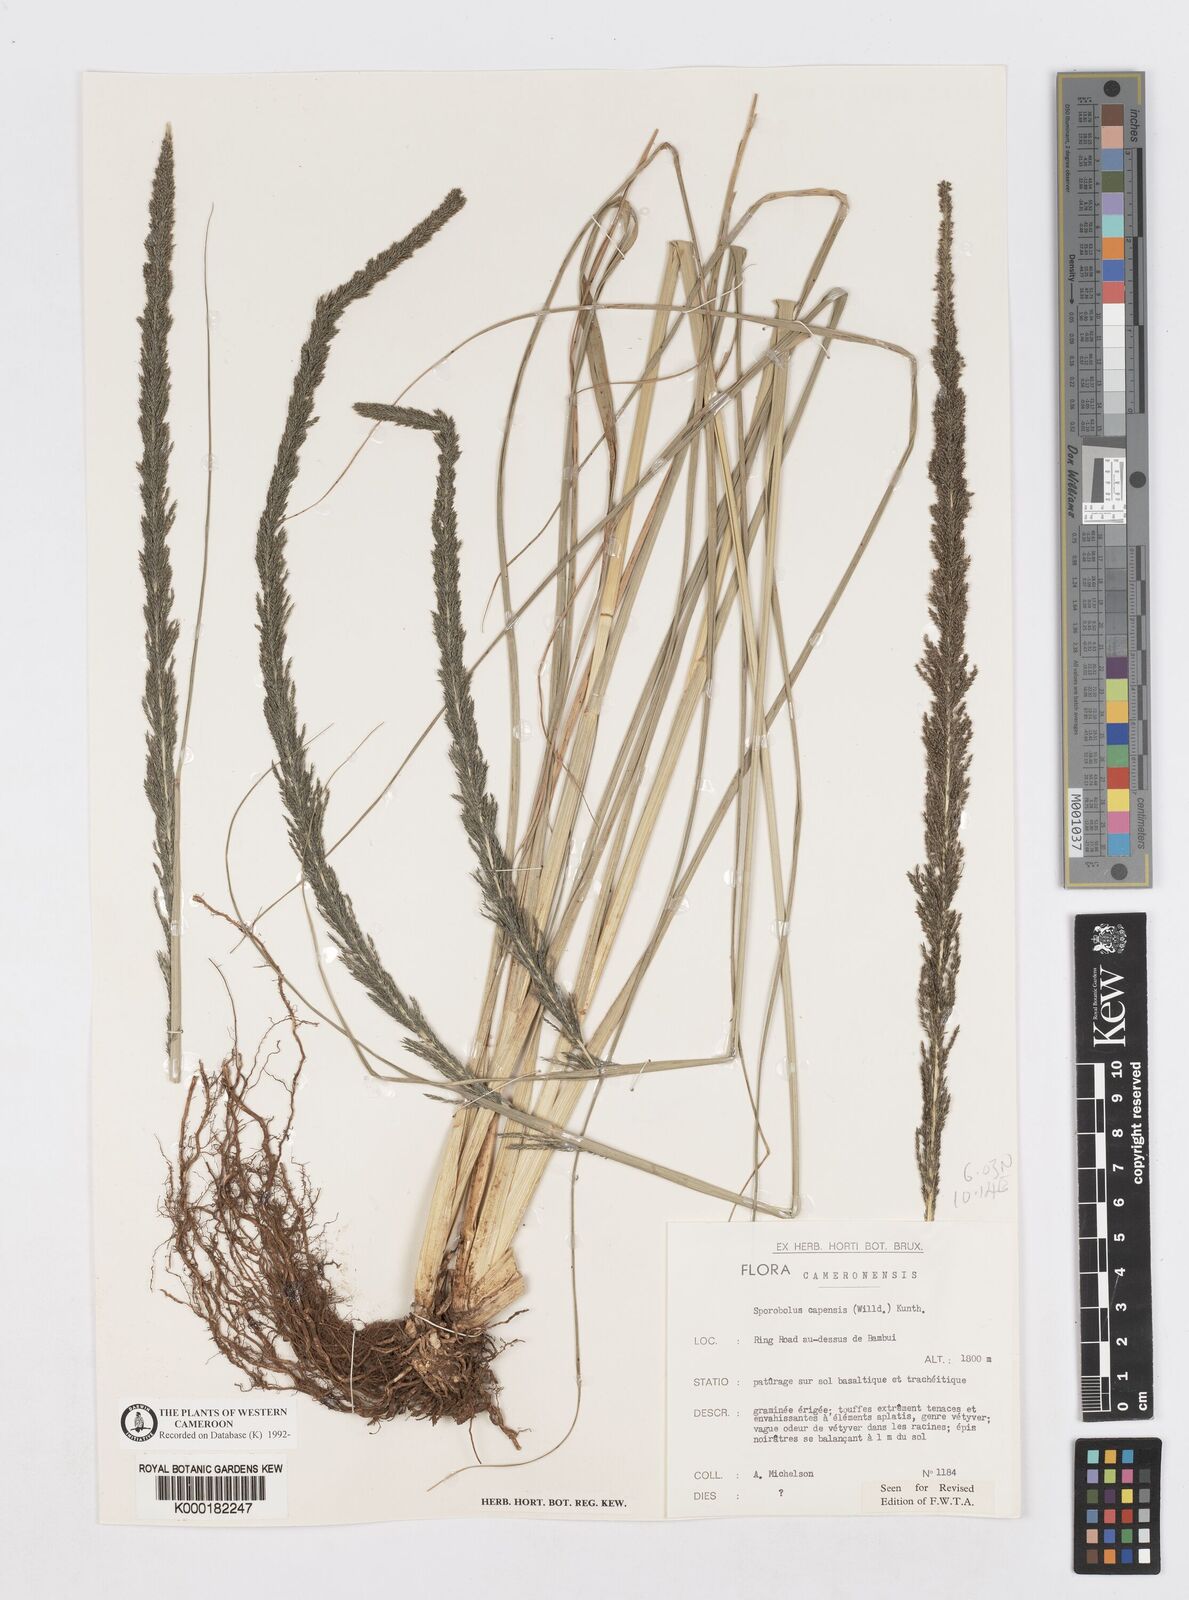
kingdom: Plantae
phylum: Tracheophyta
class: Liliopsida
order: Poales
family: Poaceae
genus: Sporobolus
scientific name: Sporobolus africanus
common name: African dropseed
